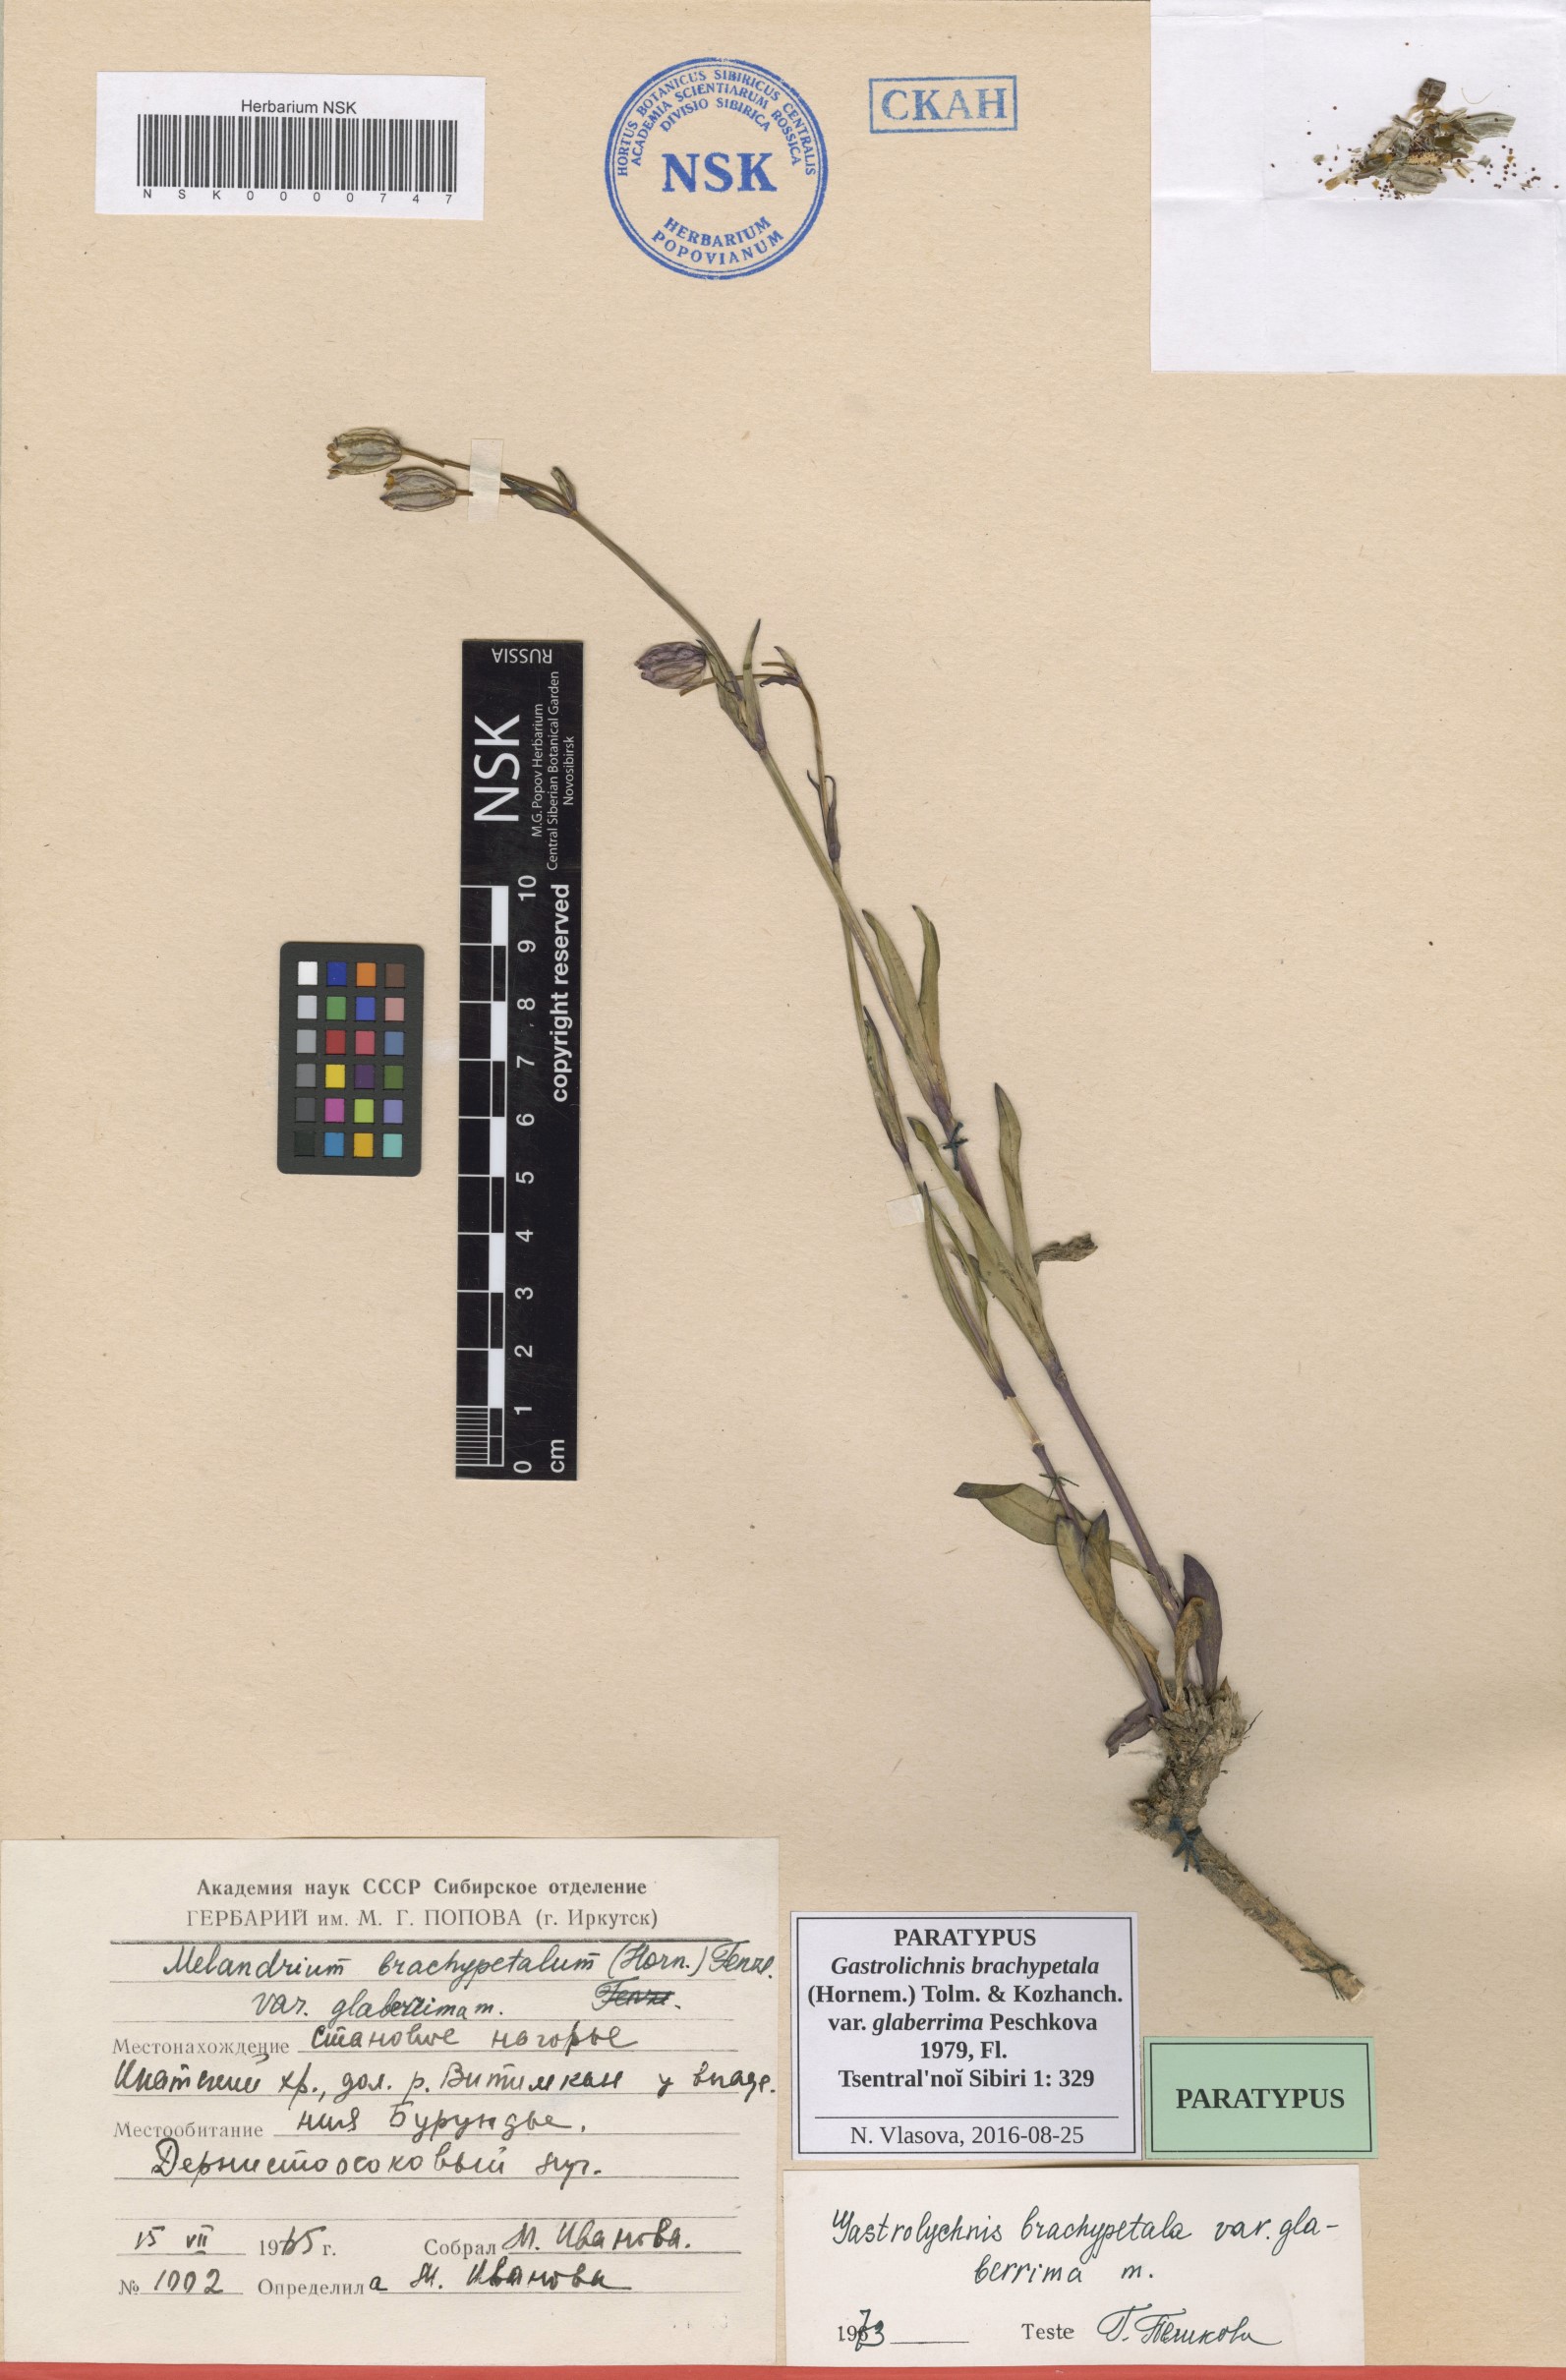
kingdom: Plantae
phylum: Tracheophyta
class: Magnoliopsida
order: Caryophyllales
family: Caryophyllaceae
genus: Silene
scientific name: Silene songarica
